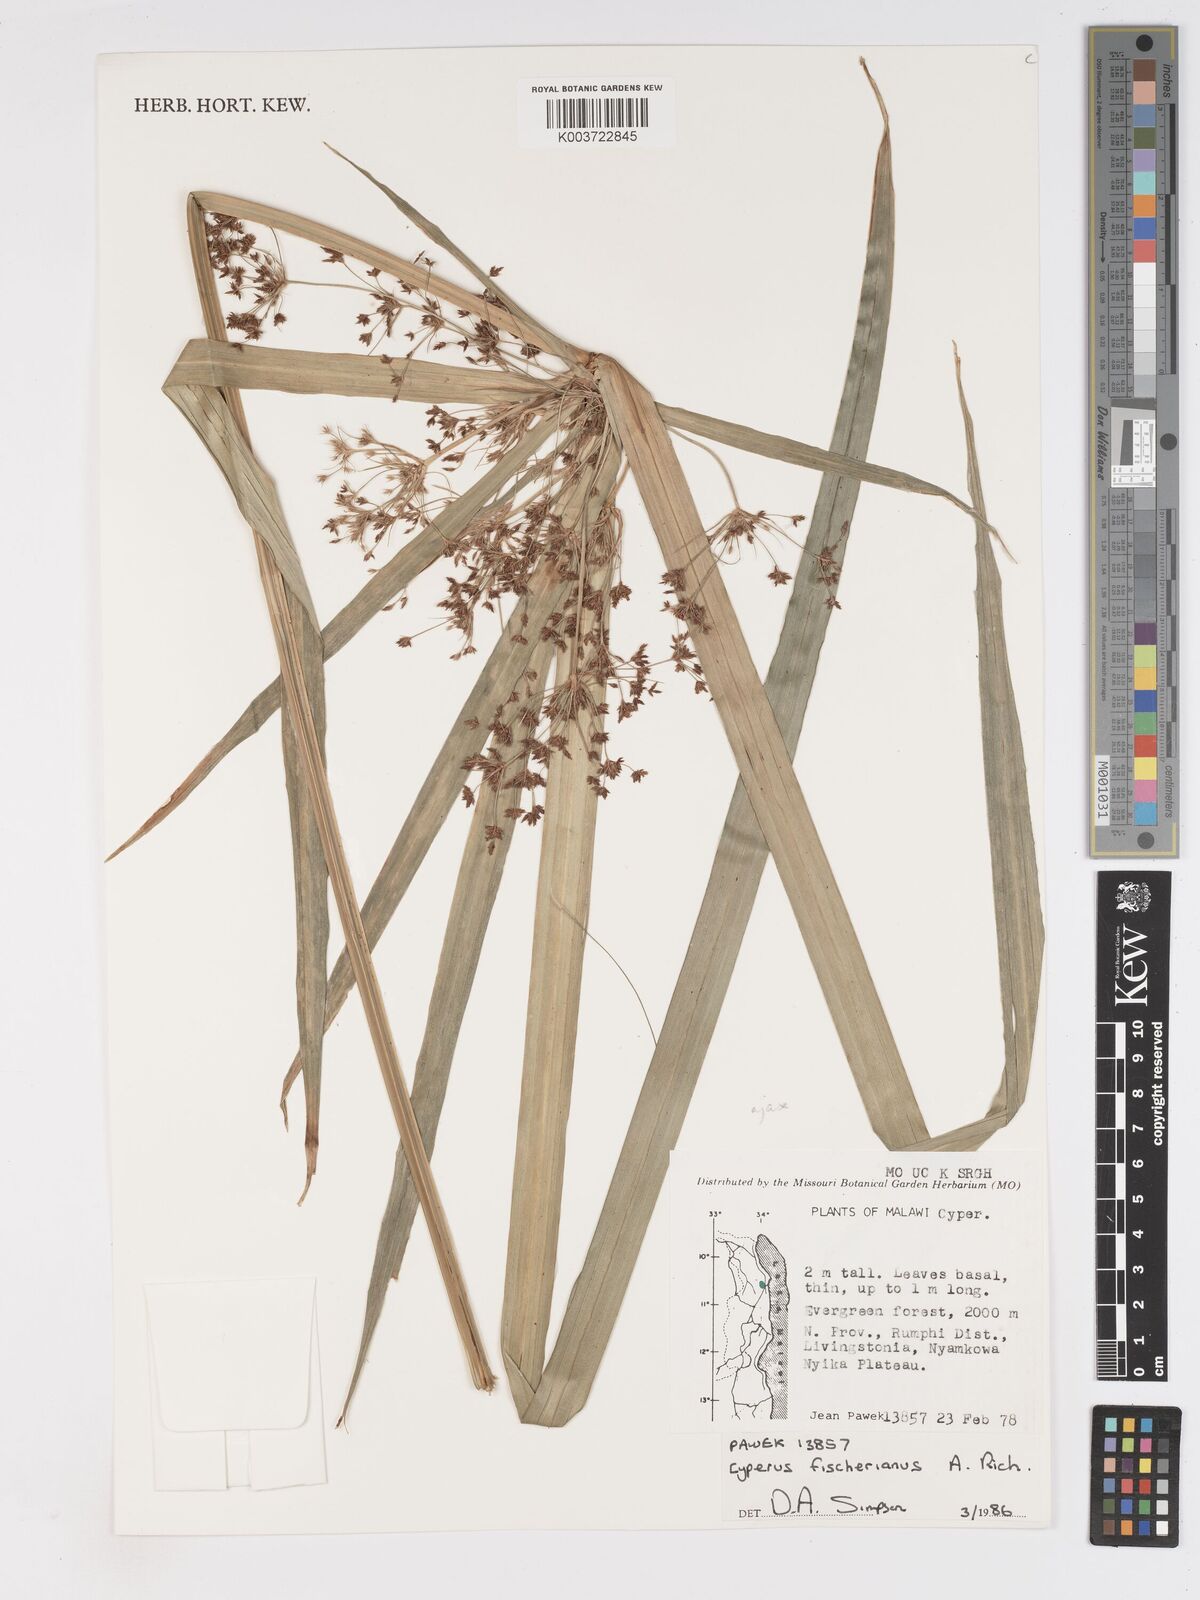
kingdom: Plantae
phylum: Tracheophyta
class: Liliopsida
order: Poales
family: Cyperaceae
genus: Cyperus
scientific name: Cyperus fischerianus
